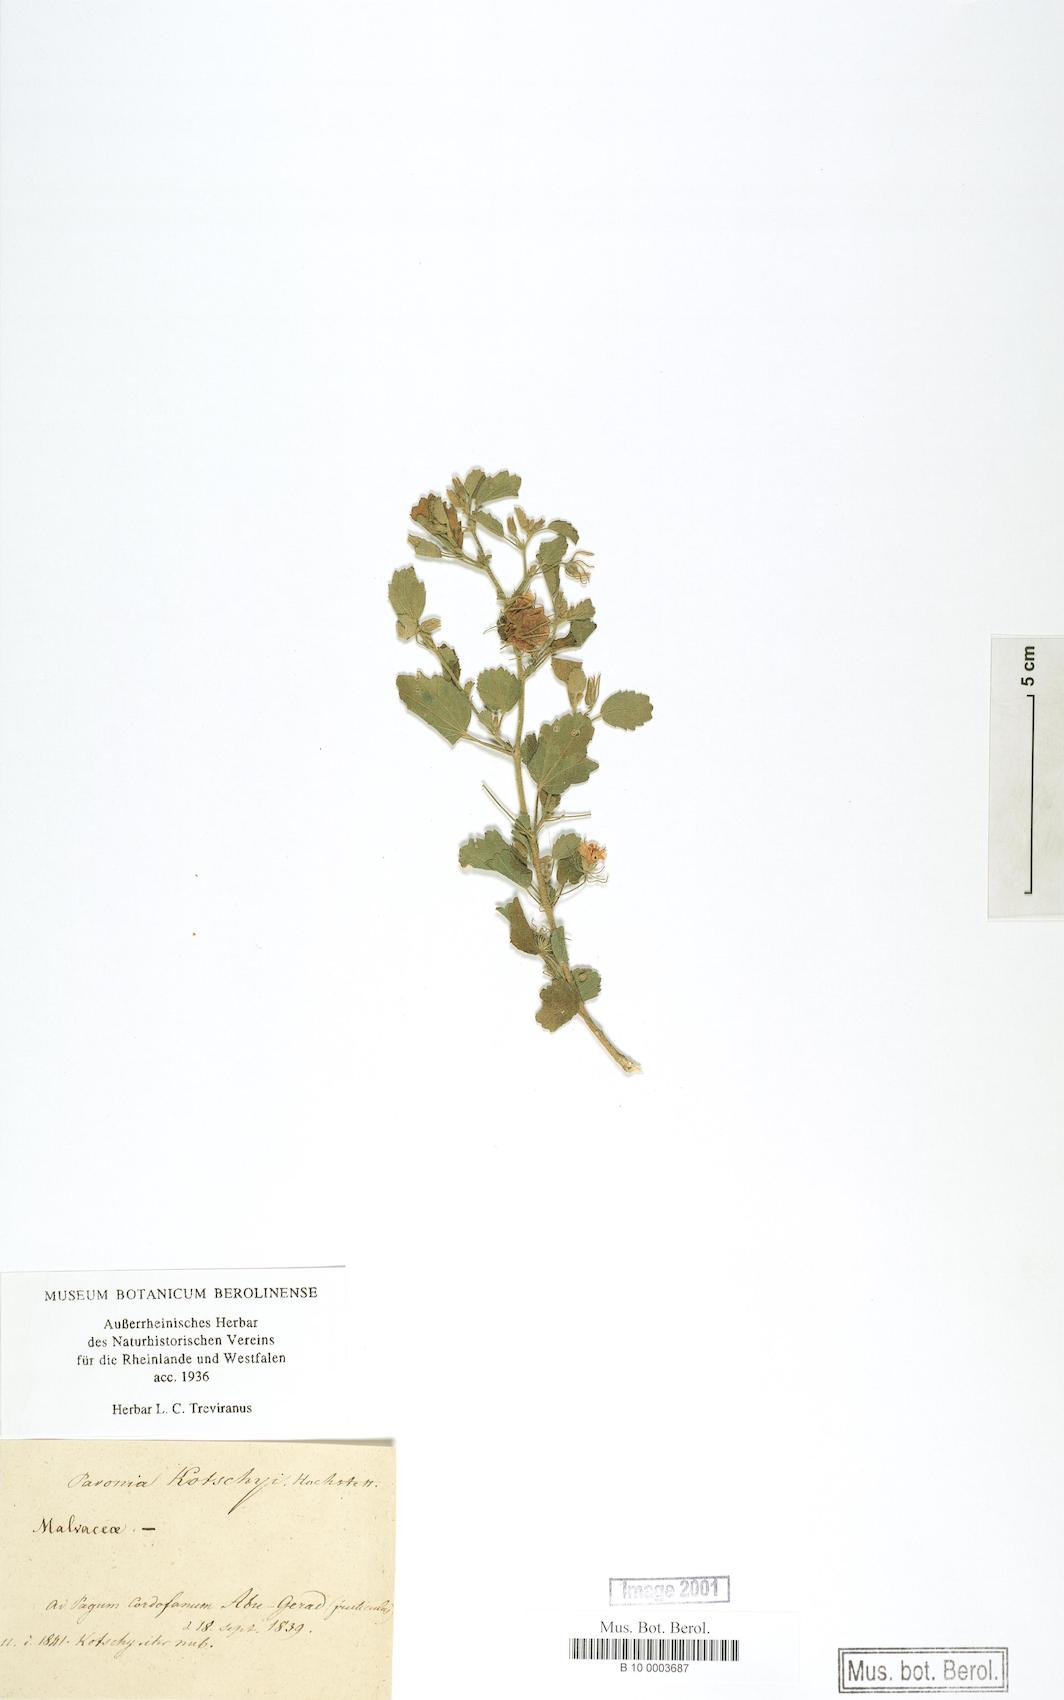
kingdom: Plantae
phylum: Tracheophyta
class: Magnoliopsida
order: Malvales
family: Malvaceae
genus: Pavonia
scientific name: Pavonia kotschyi
